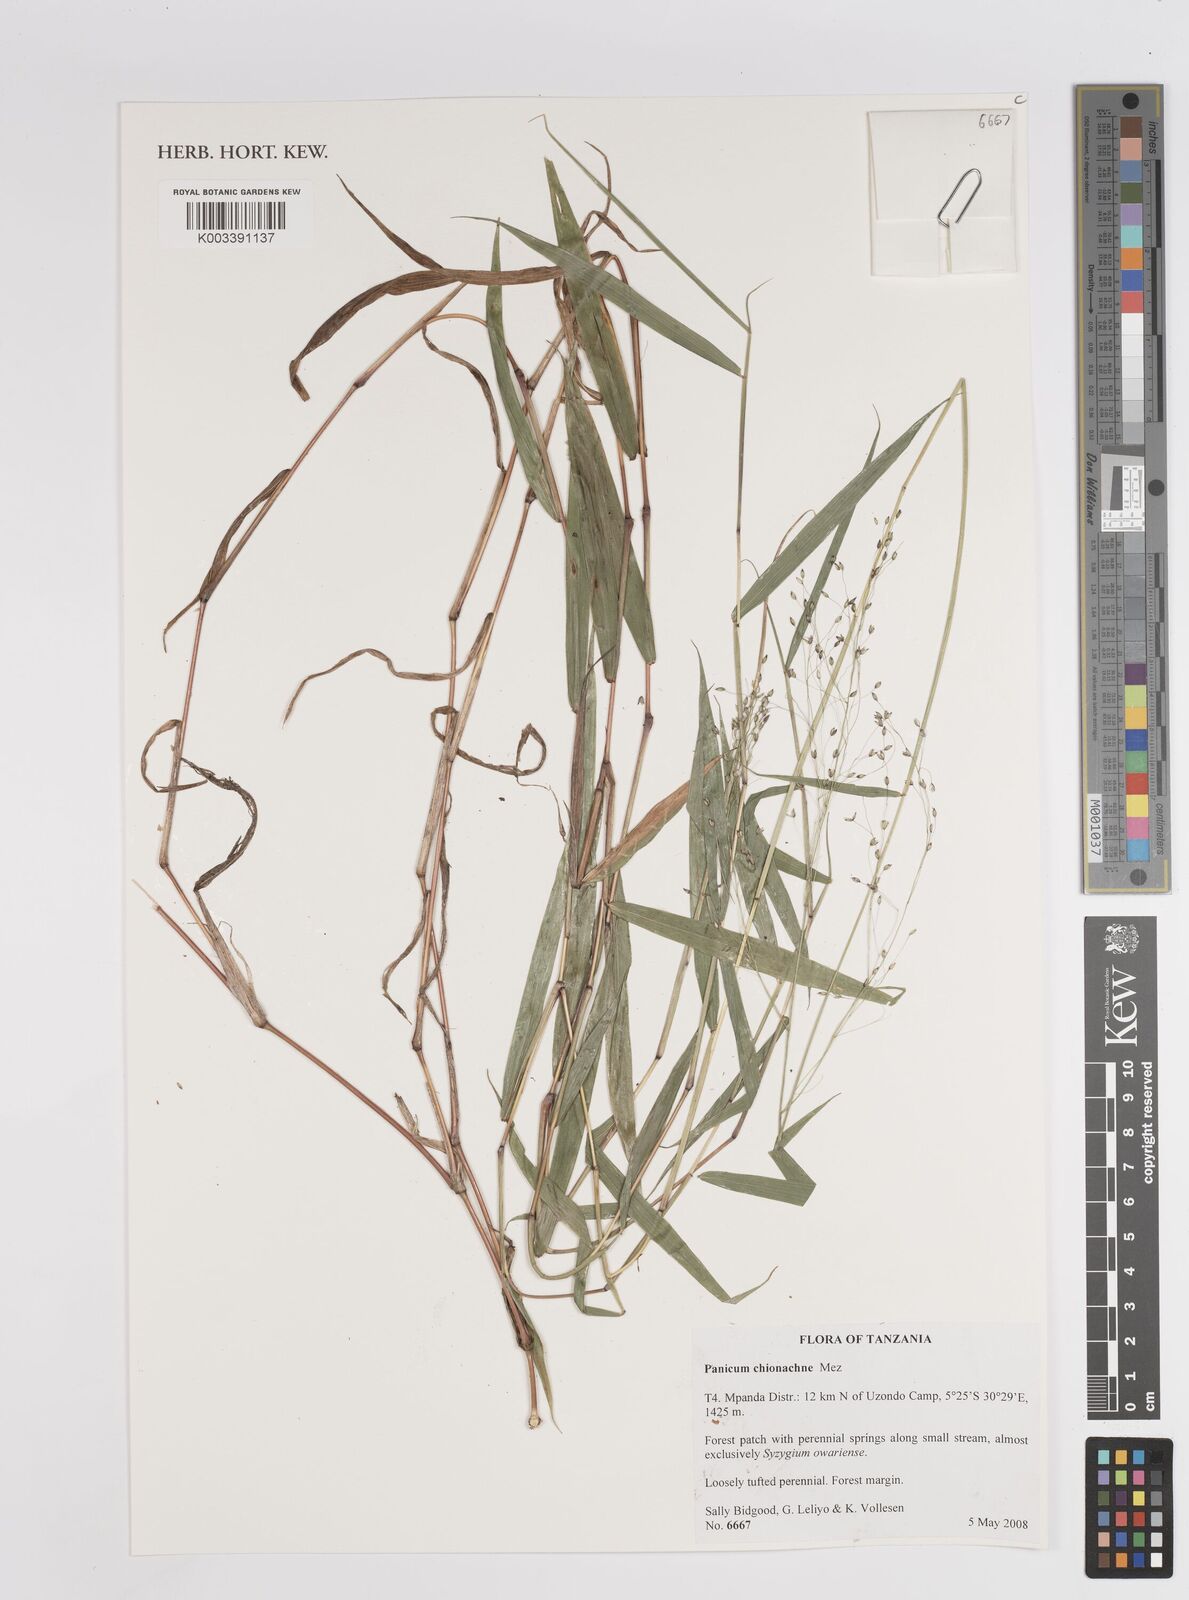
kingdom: Plantae
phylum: Tracheophyta
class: Liliopsida
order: Poales
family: Poaceae
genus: Panicum
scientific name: Panicum chionachne
